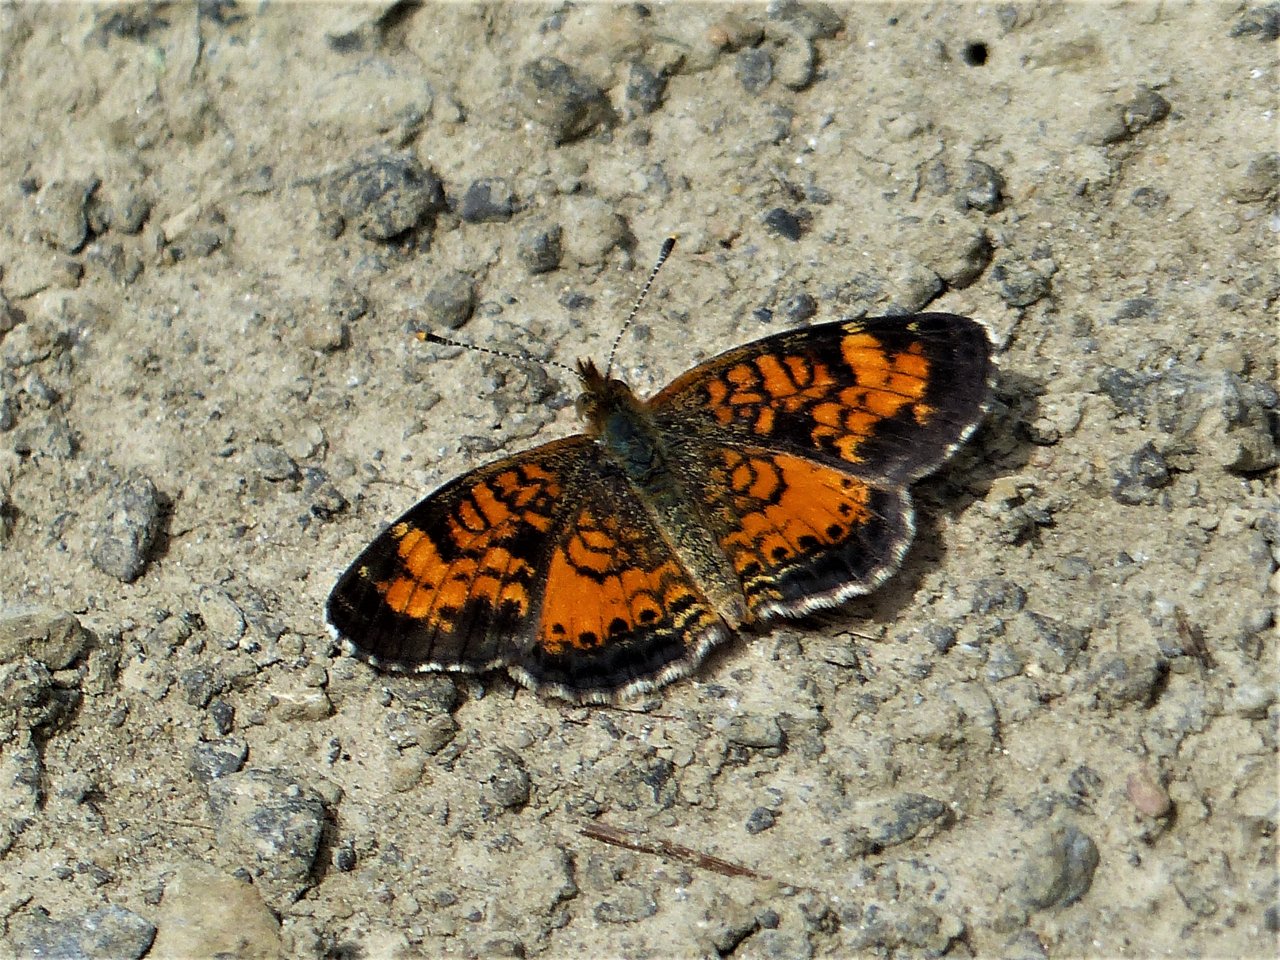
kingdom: Animalia
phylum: Arthropoda
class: Insecta
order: Lepidoptera
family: Nymphalidae
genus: Phyciodes
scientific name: Phyciodes tharos
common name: Northern Crescent
